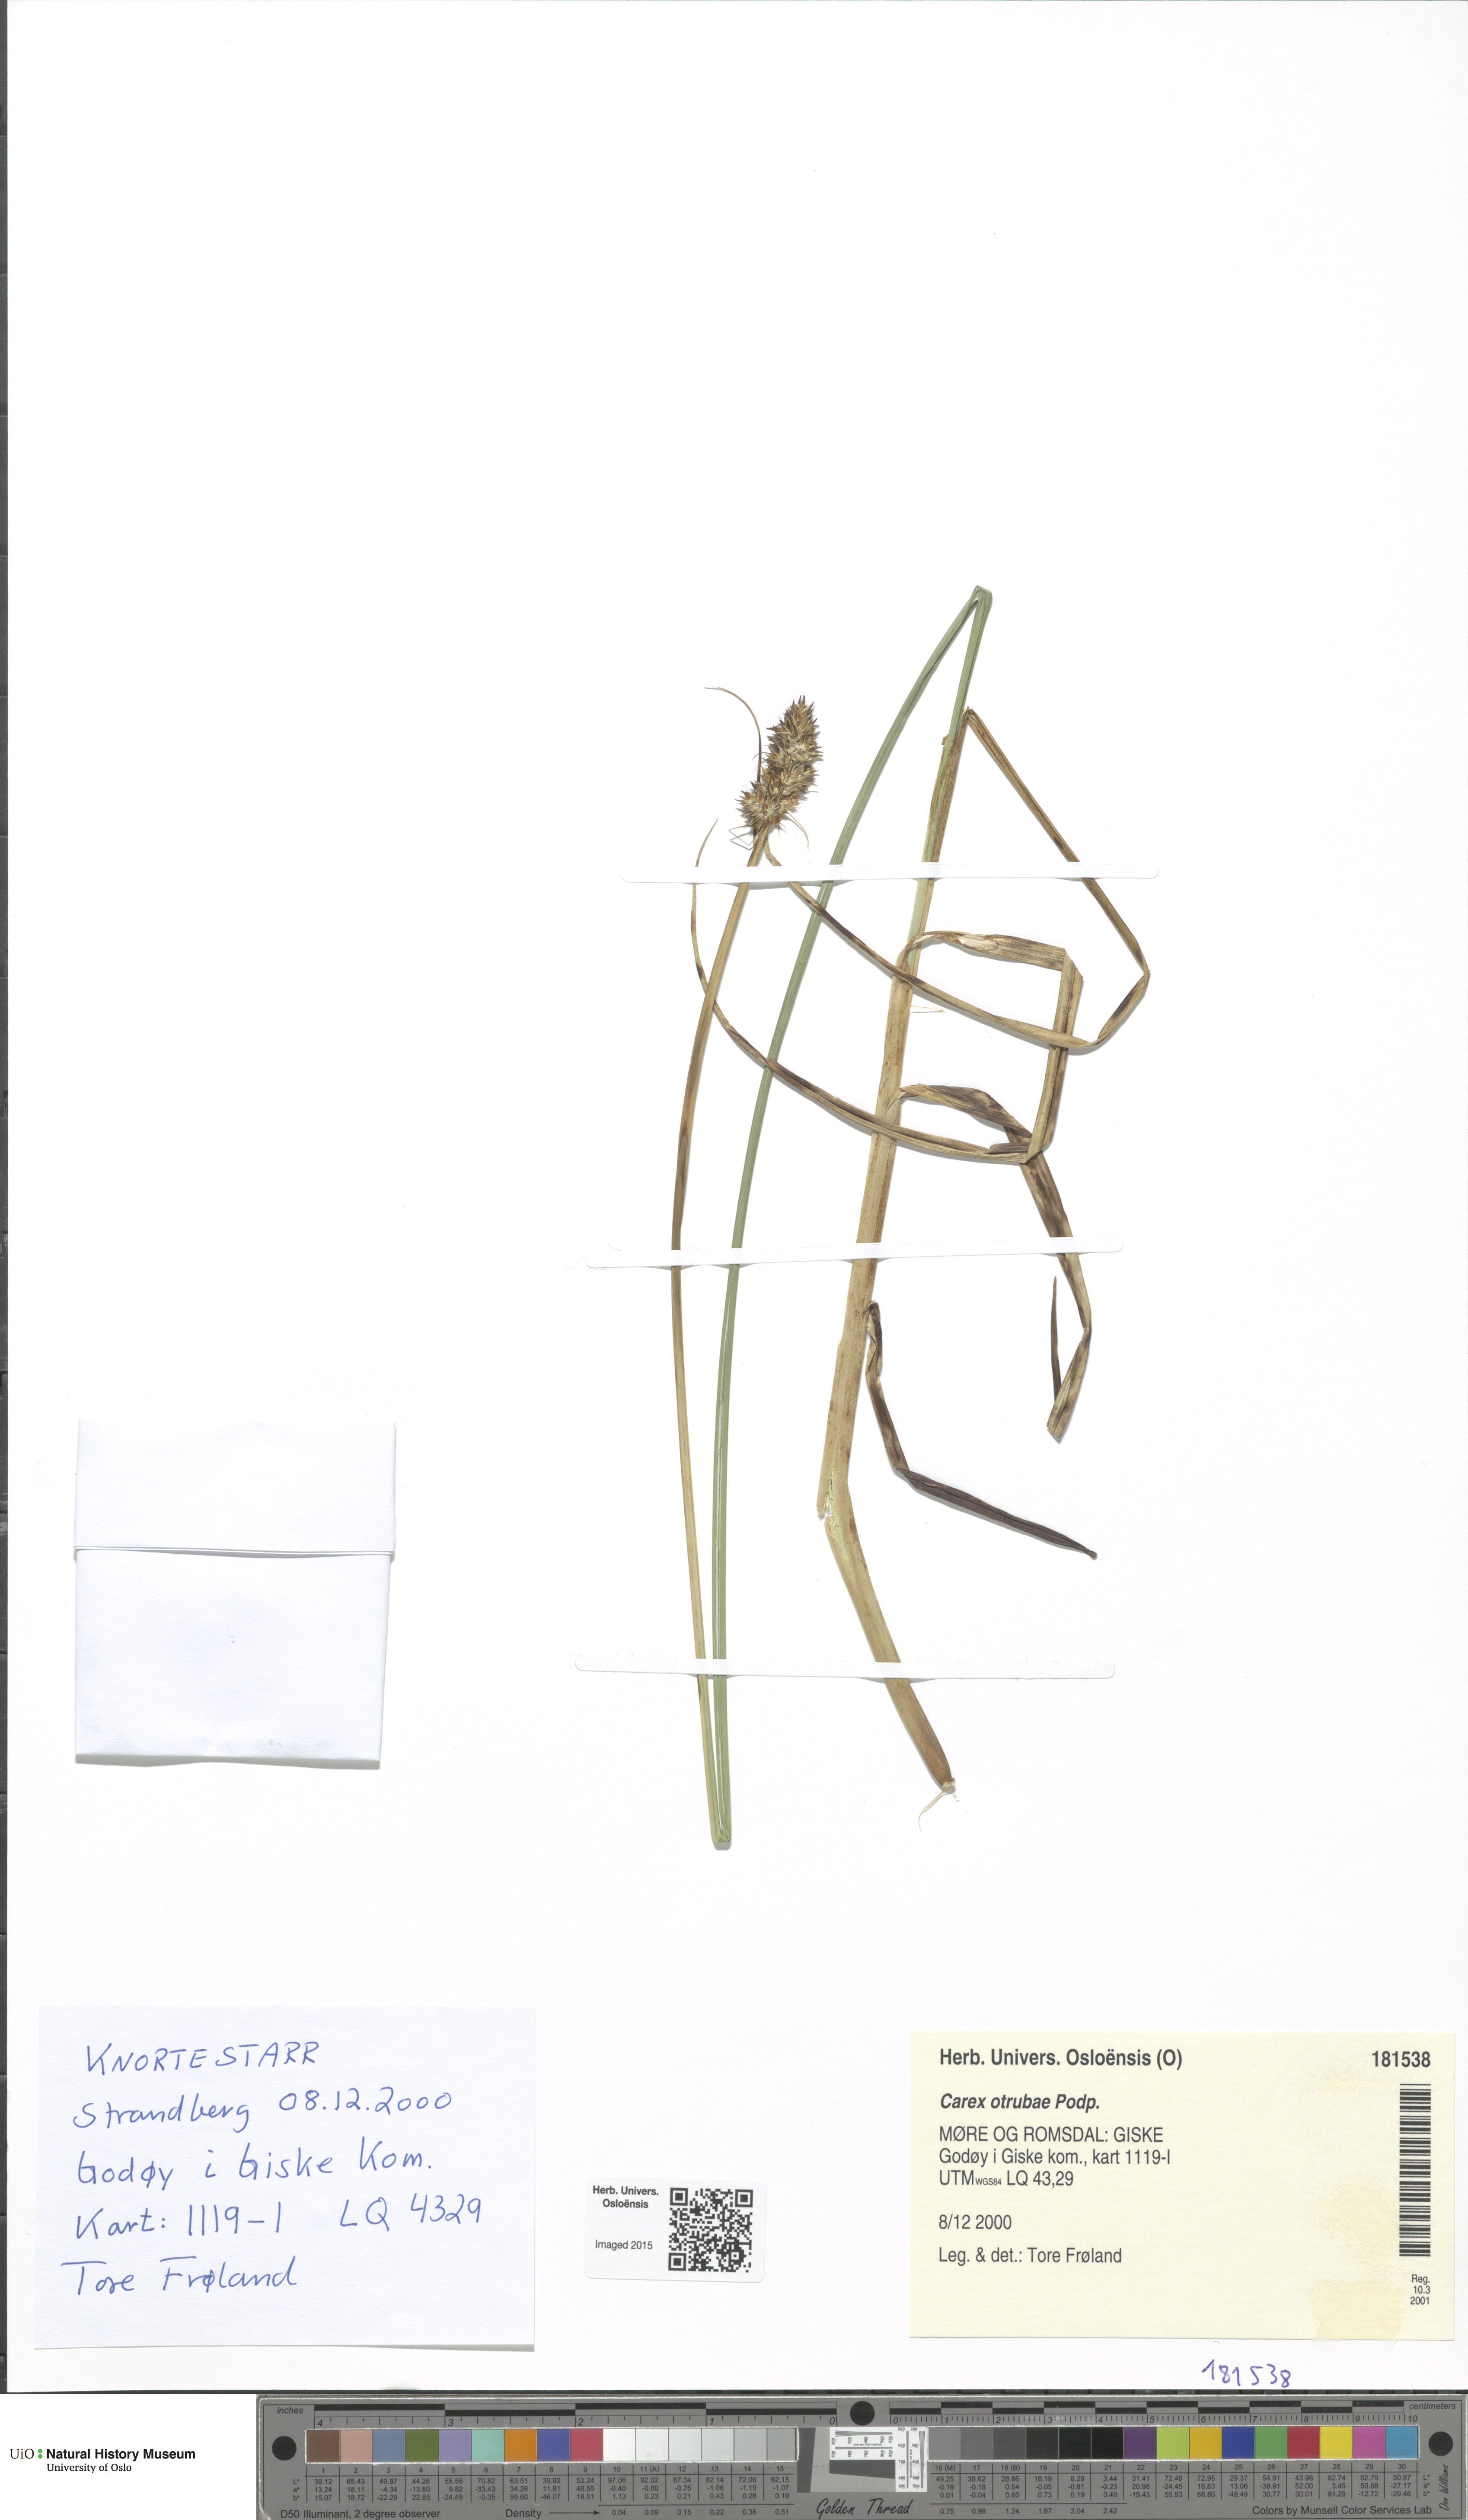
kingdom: Plantae
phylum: Tracheophyta
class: Liliopsida
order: Poales
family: Cyperaceae
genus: Carex
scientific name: Carex otrubae
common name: False fox-sedge
